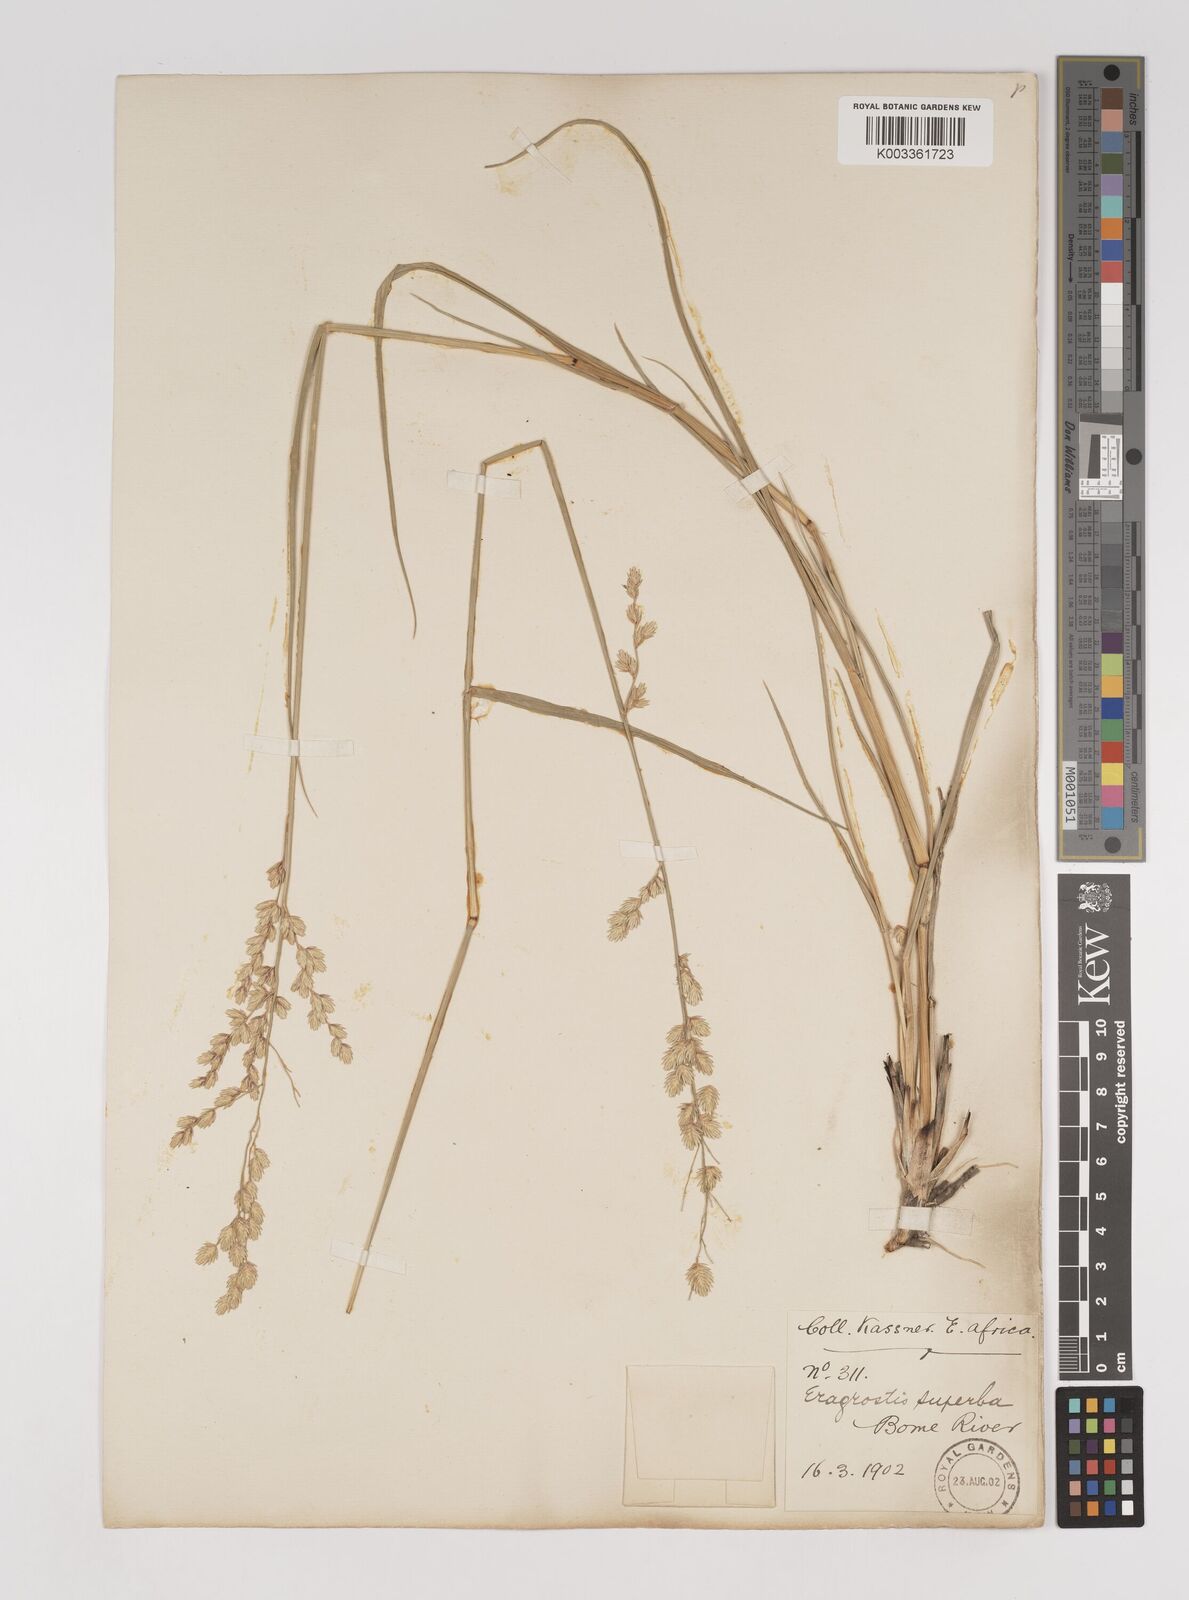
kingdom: Plantae
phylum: Tracheophyta
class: Liliopsida
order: Poales
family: Poaceae
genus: Eragrostis
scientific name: Eragrostis superba
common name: Wilman lovegrass
